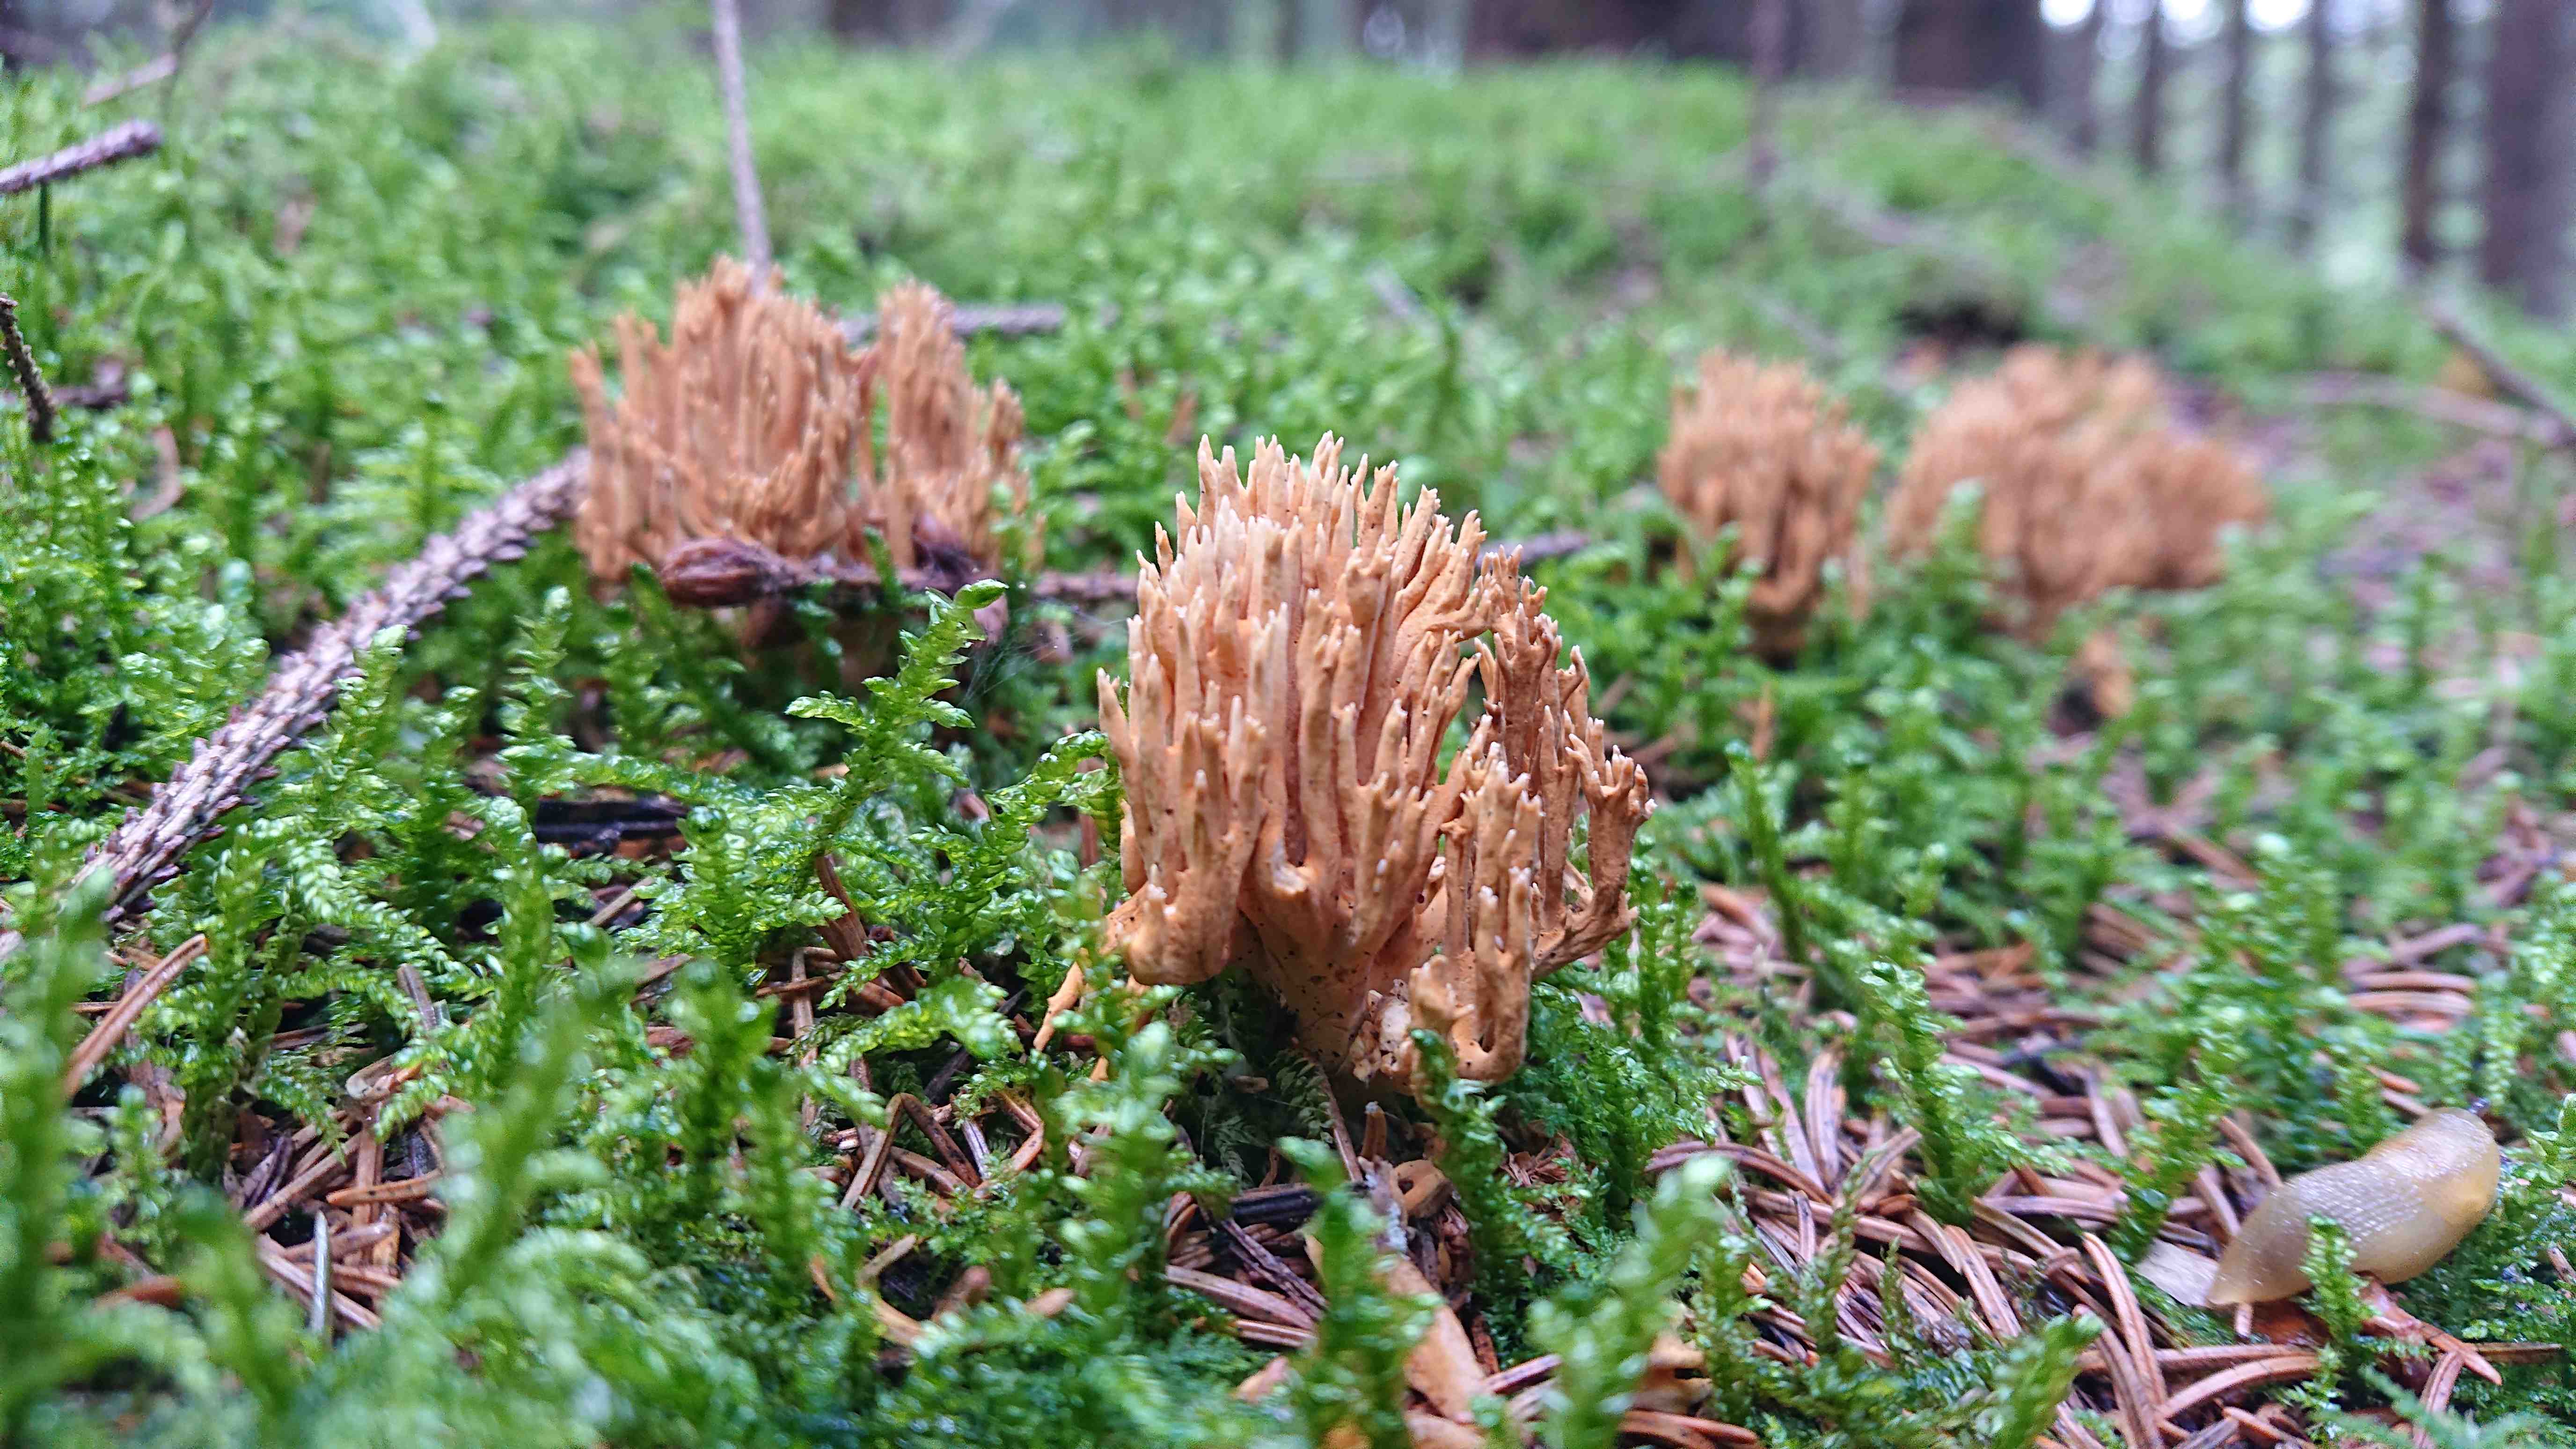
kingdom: Fungi
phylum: Basidiomycota
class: Agaricomycetes
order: Gomphales
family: Gomphaceae
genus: Phaeoclavulina
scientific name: Phaeoclavulina eumorpha
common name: gran-koralsvamp
